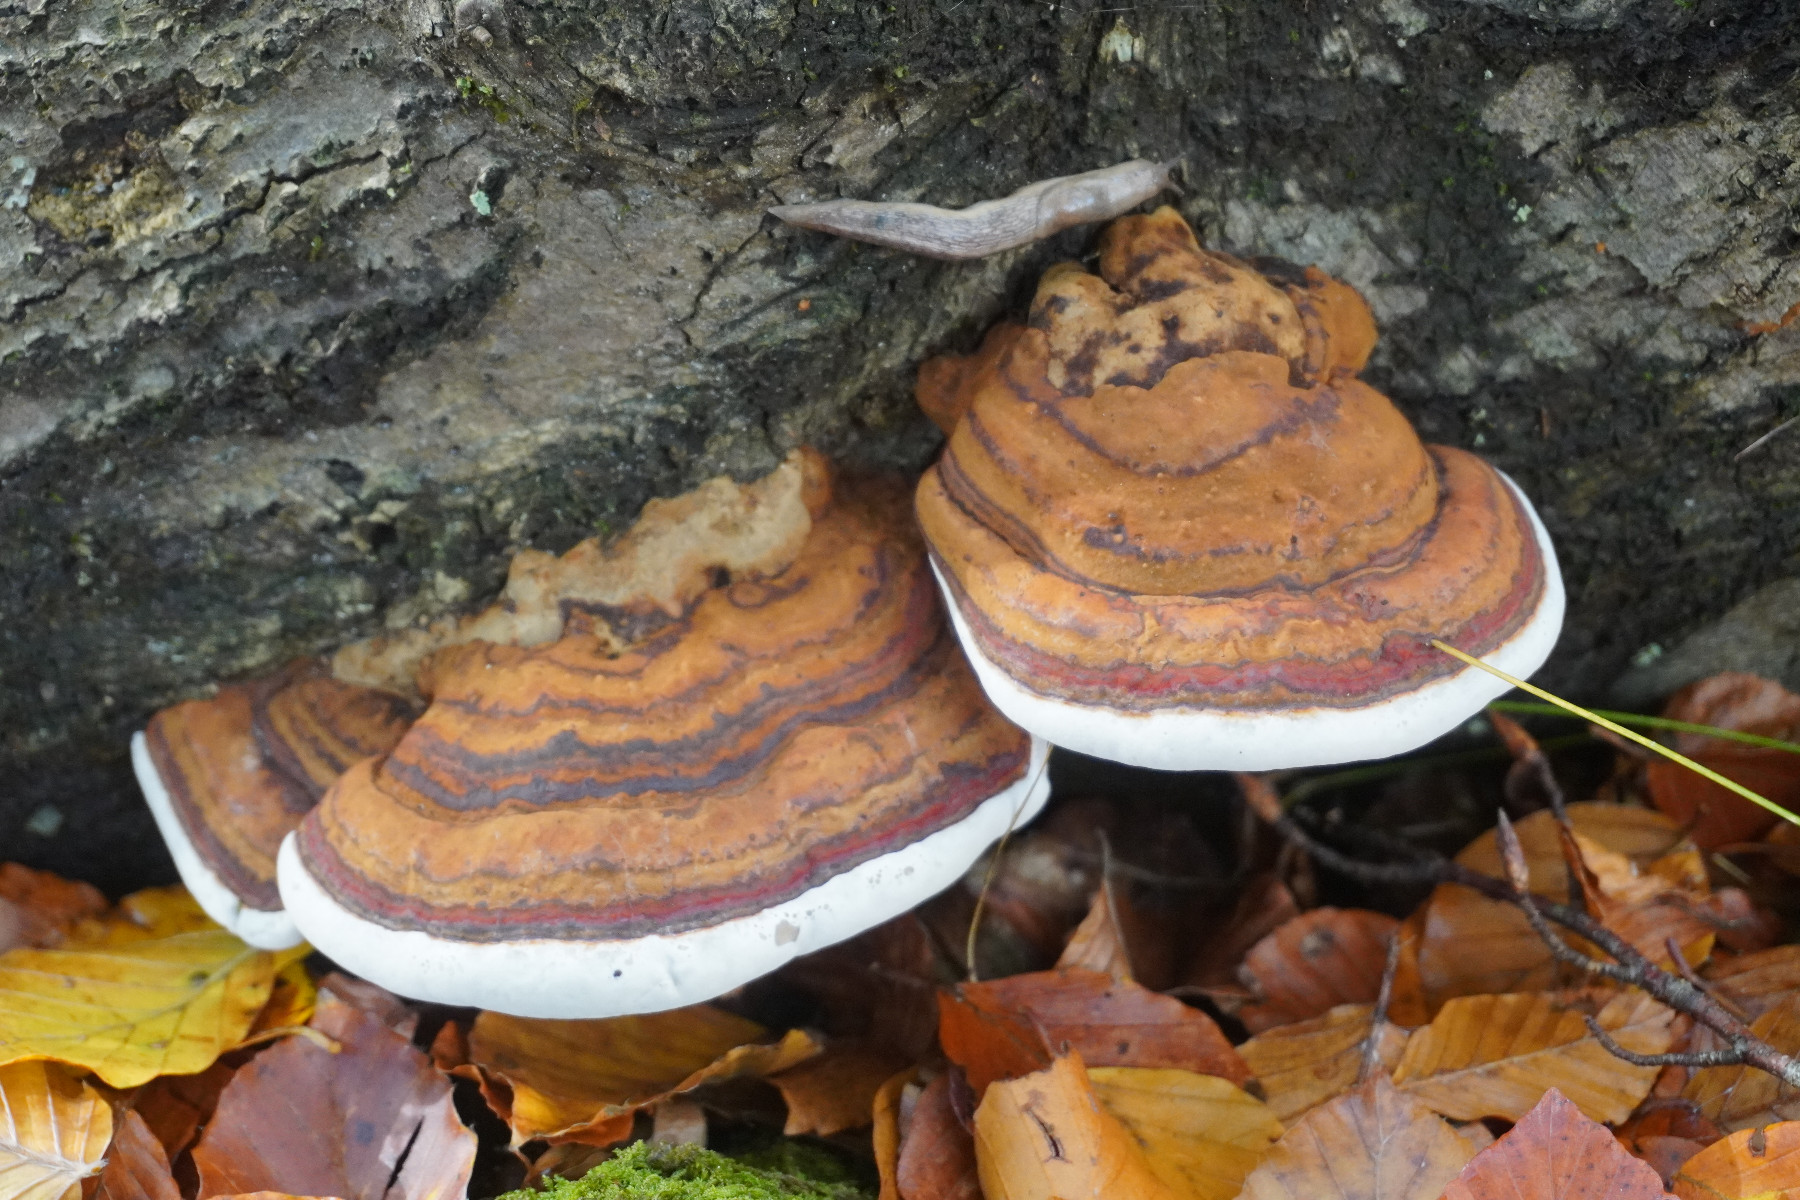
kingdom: Fungi
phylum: Basidiomycota
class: Agaricomycetes
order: Polyporales
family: Polyporaceae
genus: Ganoderma
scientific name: Ganoderma
